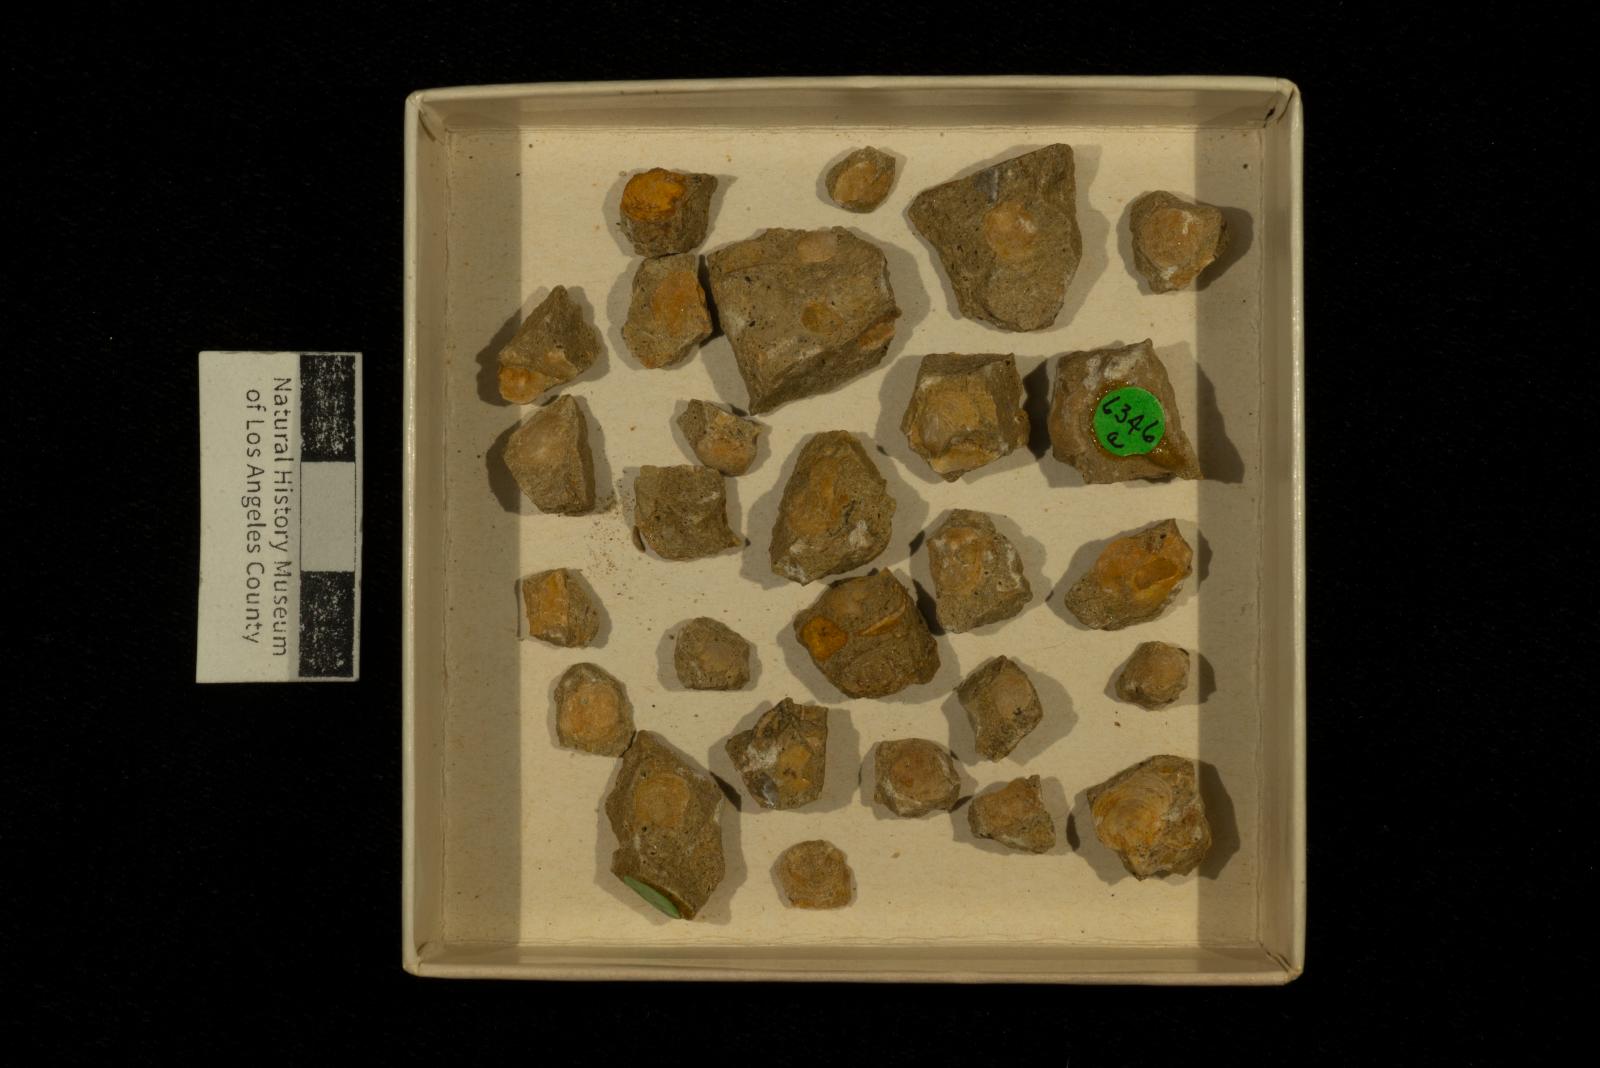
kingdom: Animalia
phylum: Mollusca
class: Bivalvia
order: Arcida
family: Limopsidae
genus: Limopsis
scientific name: Limopsis
